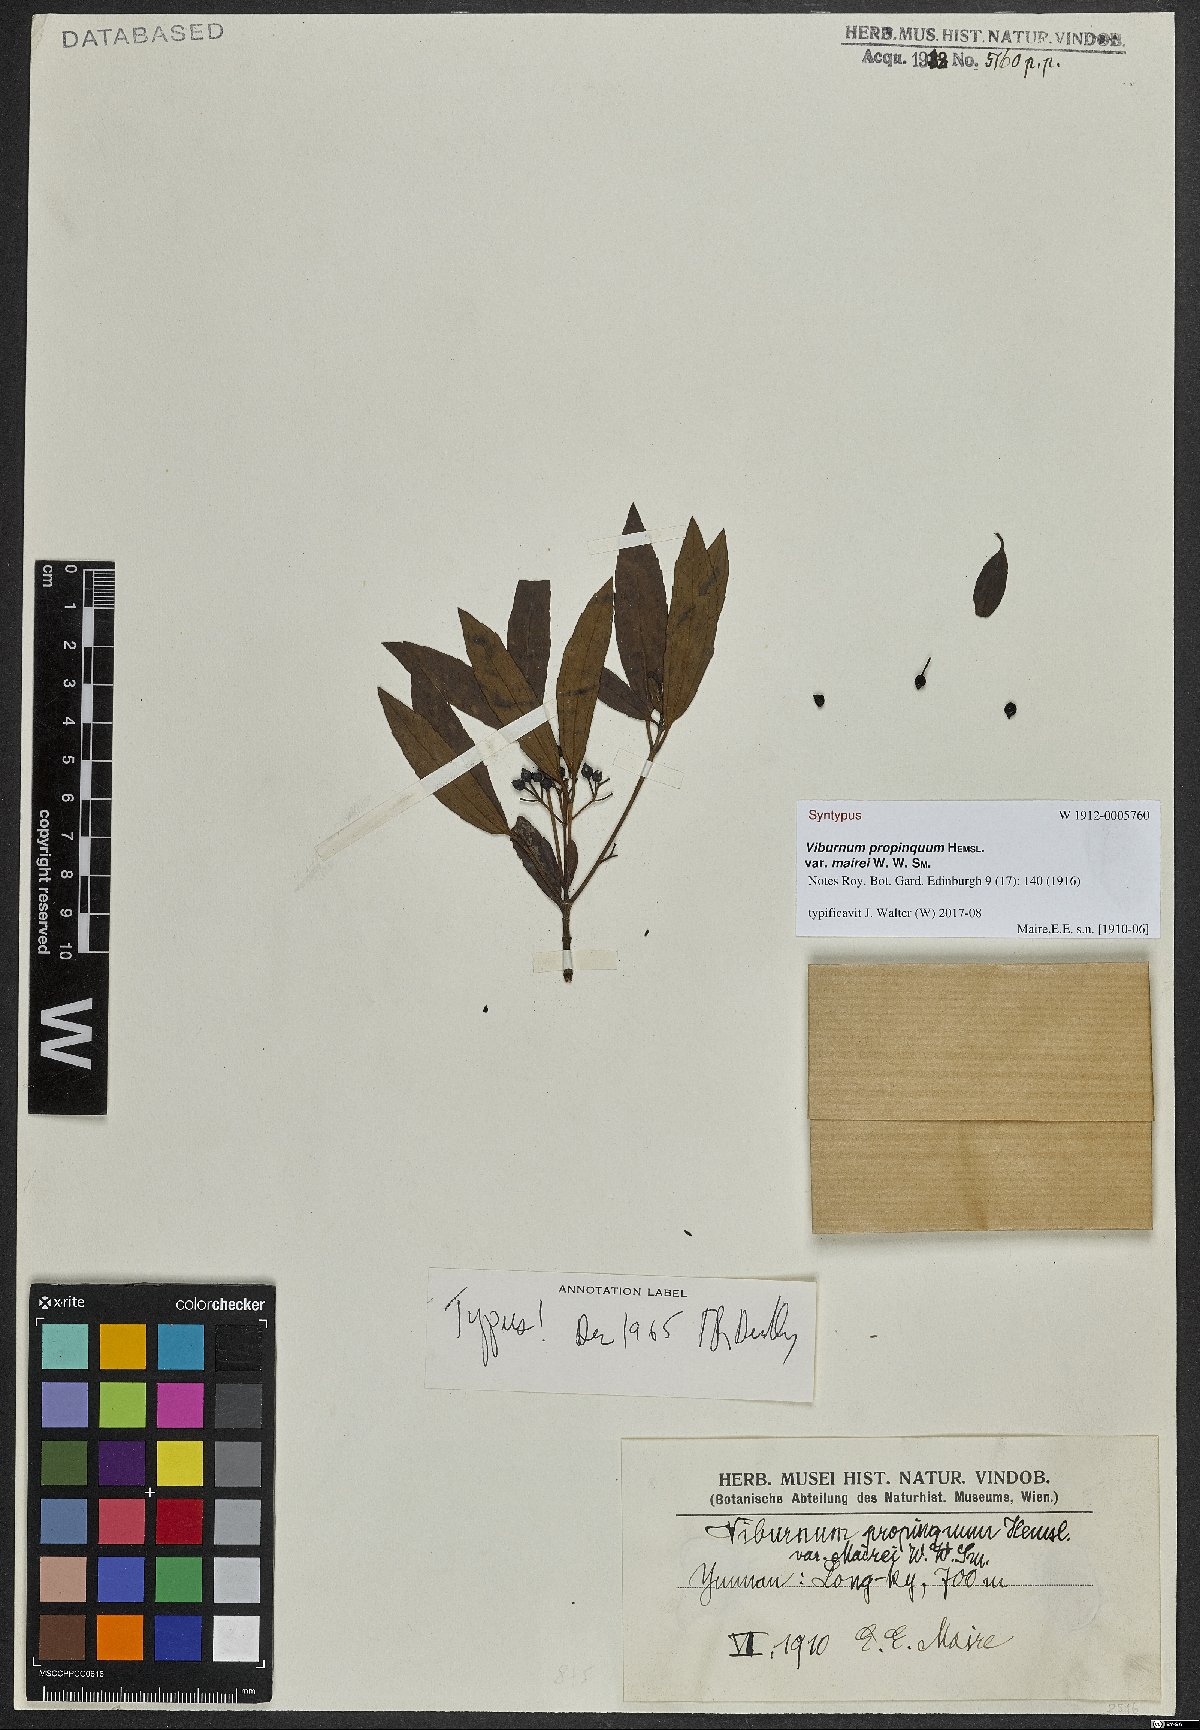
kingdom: Plantae
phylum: Tracheophyta
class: Magnoliopsida
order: Dipsacales
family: Viburnaceae
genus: Viburnum
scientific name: Viburnum propinquum
